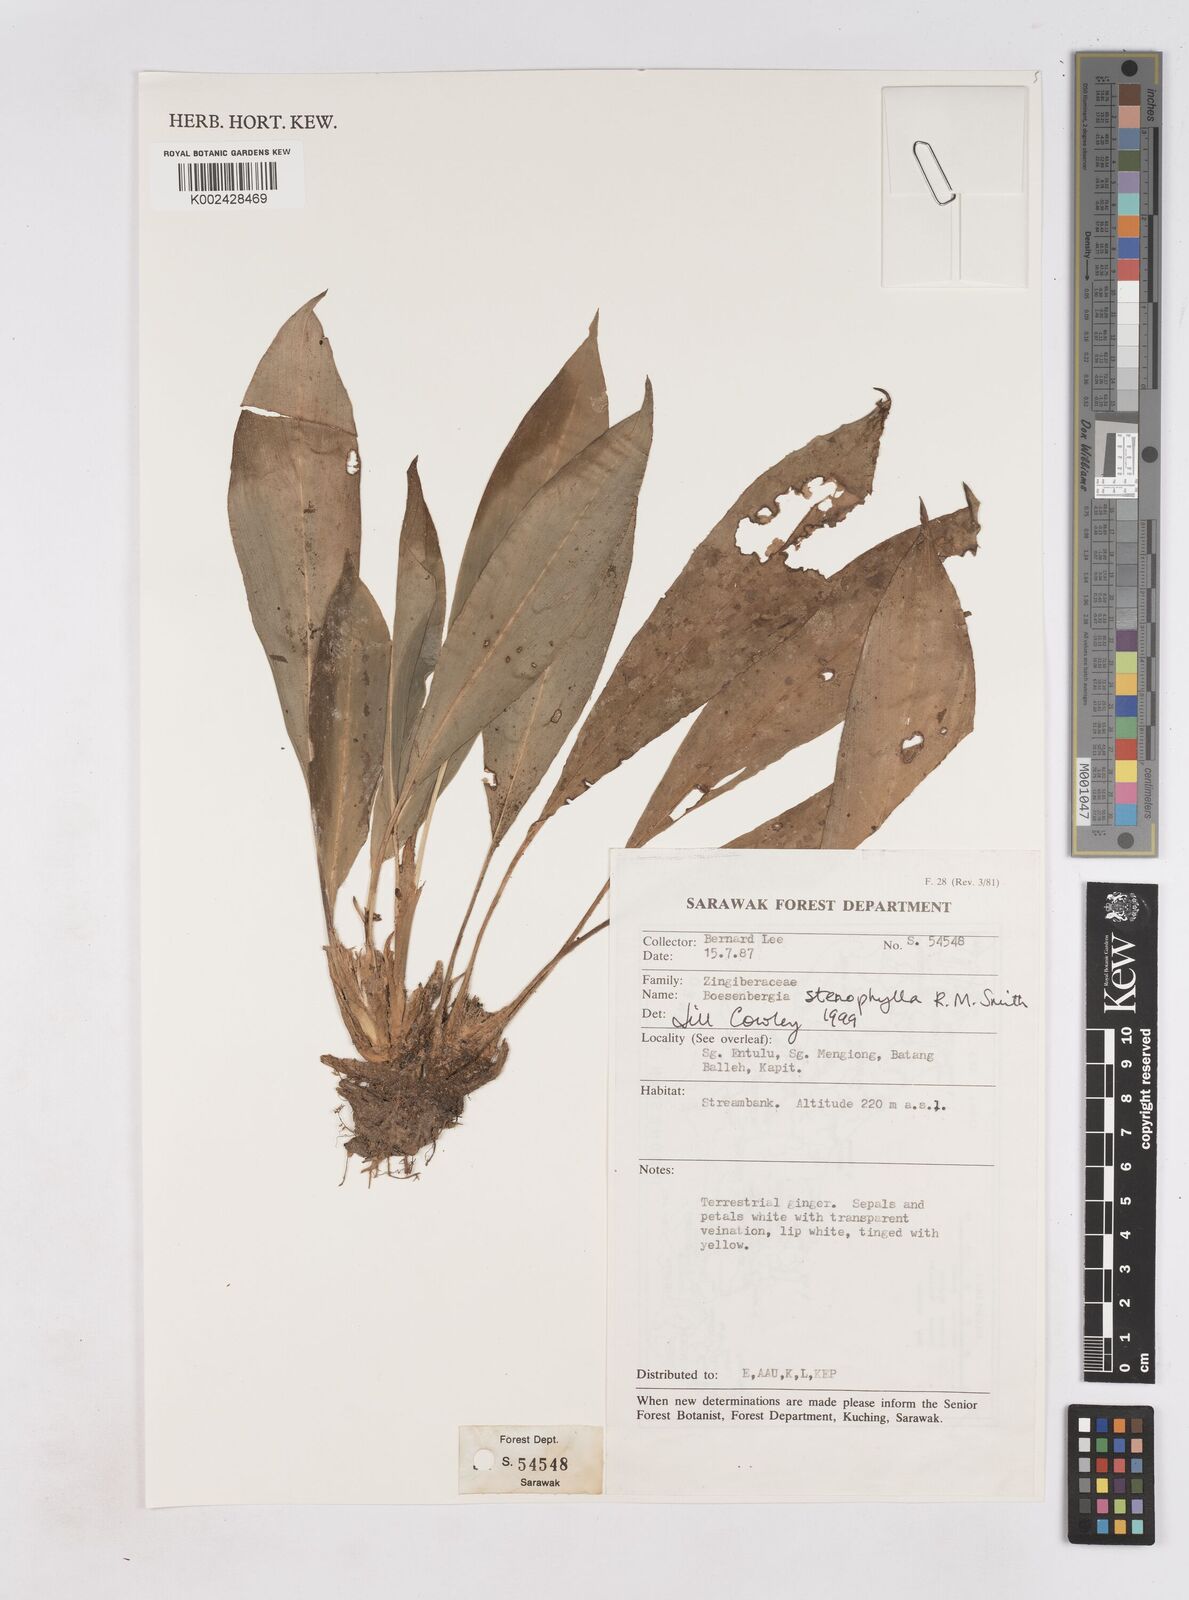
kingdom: Plantae
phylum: Tracheophyta
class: Liliopsida
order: Zingiberales
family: Zingiberaceae
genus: Boesenbergia
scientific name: Boesenbergia stenophylla
